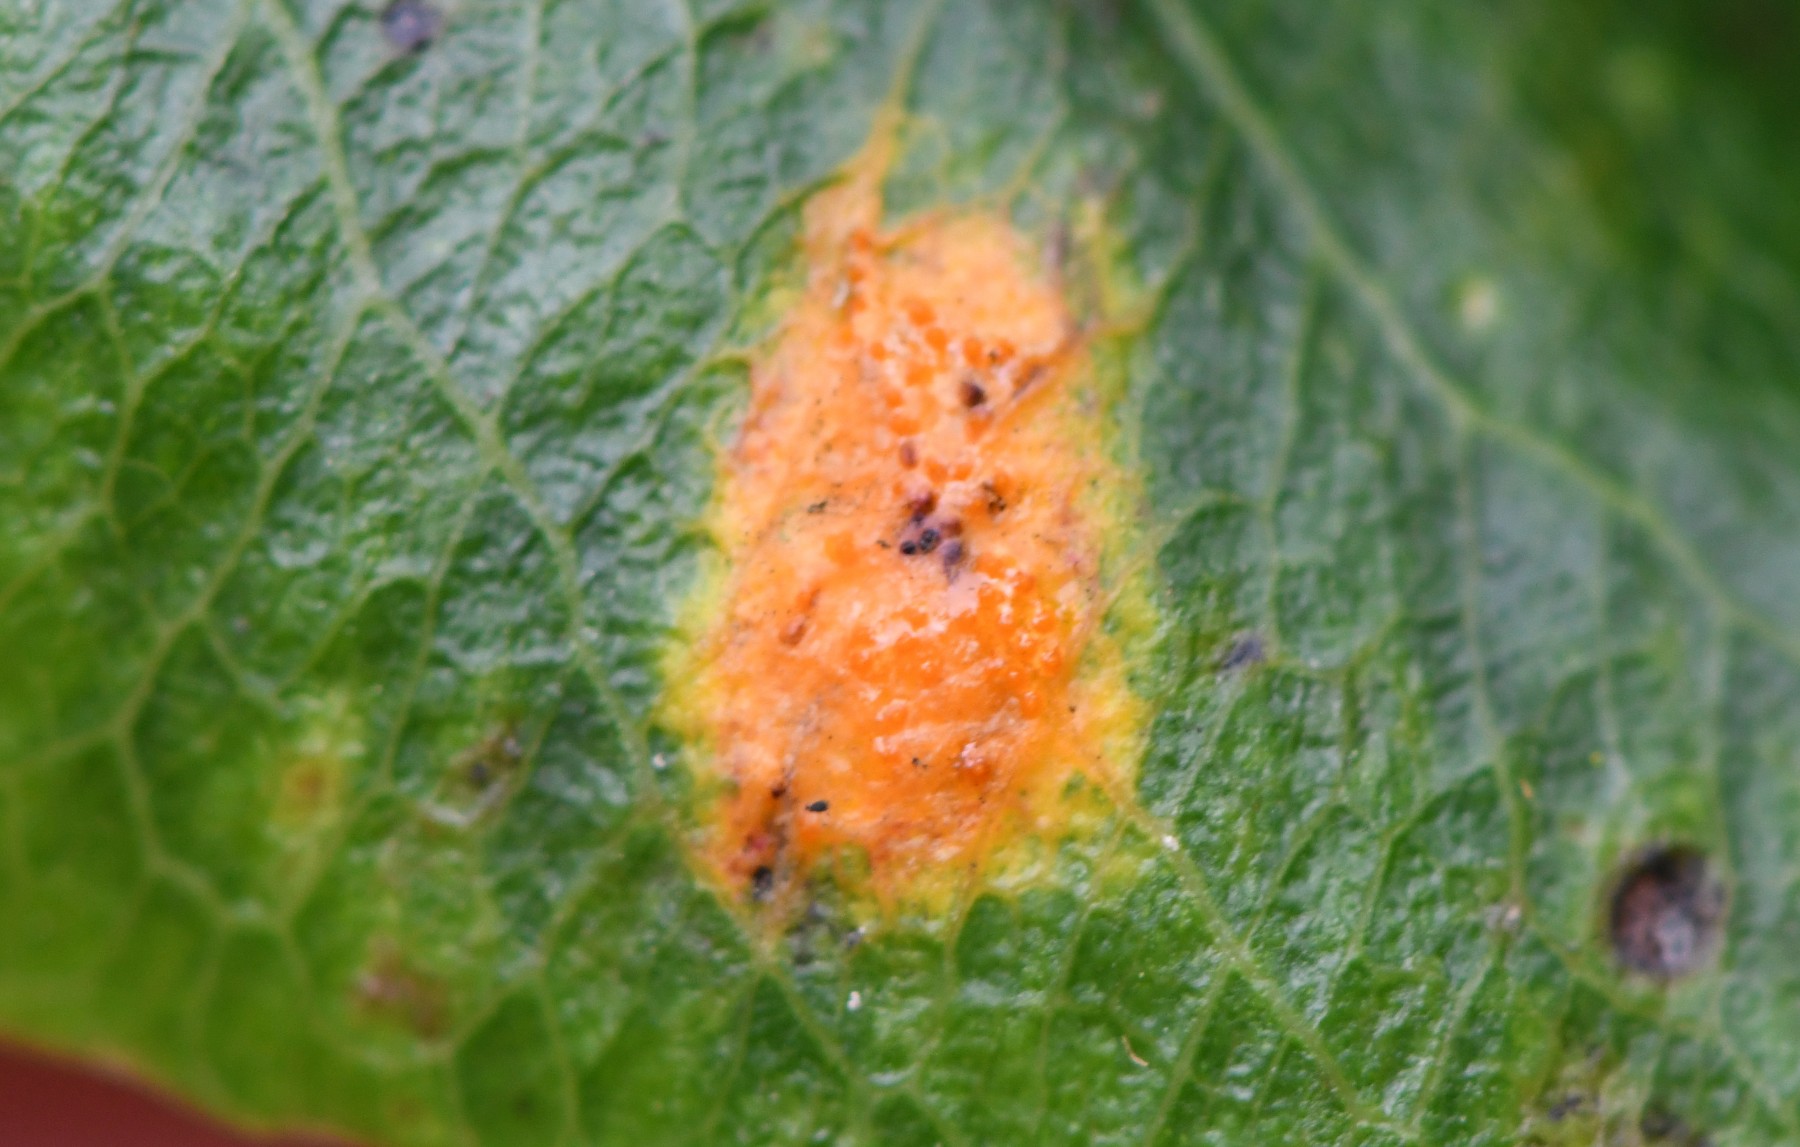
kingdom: Fungi
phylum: Basidiomycota
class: Pucciniomycetes
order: Pucciniales
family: Gymnosporangiaceae
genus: Gymnosporangium
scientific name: Gymnosporangium sabinae
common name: pæregitter-bævrerust
